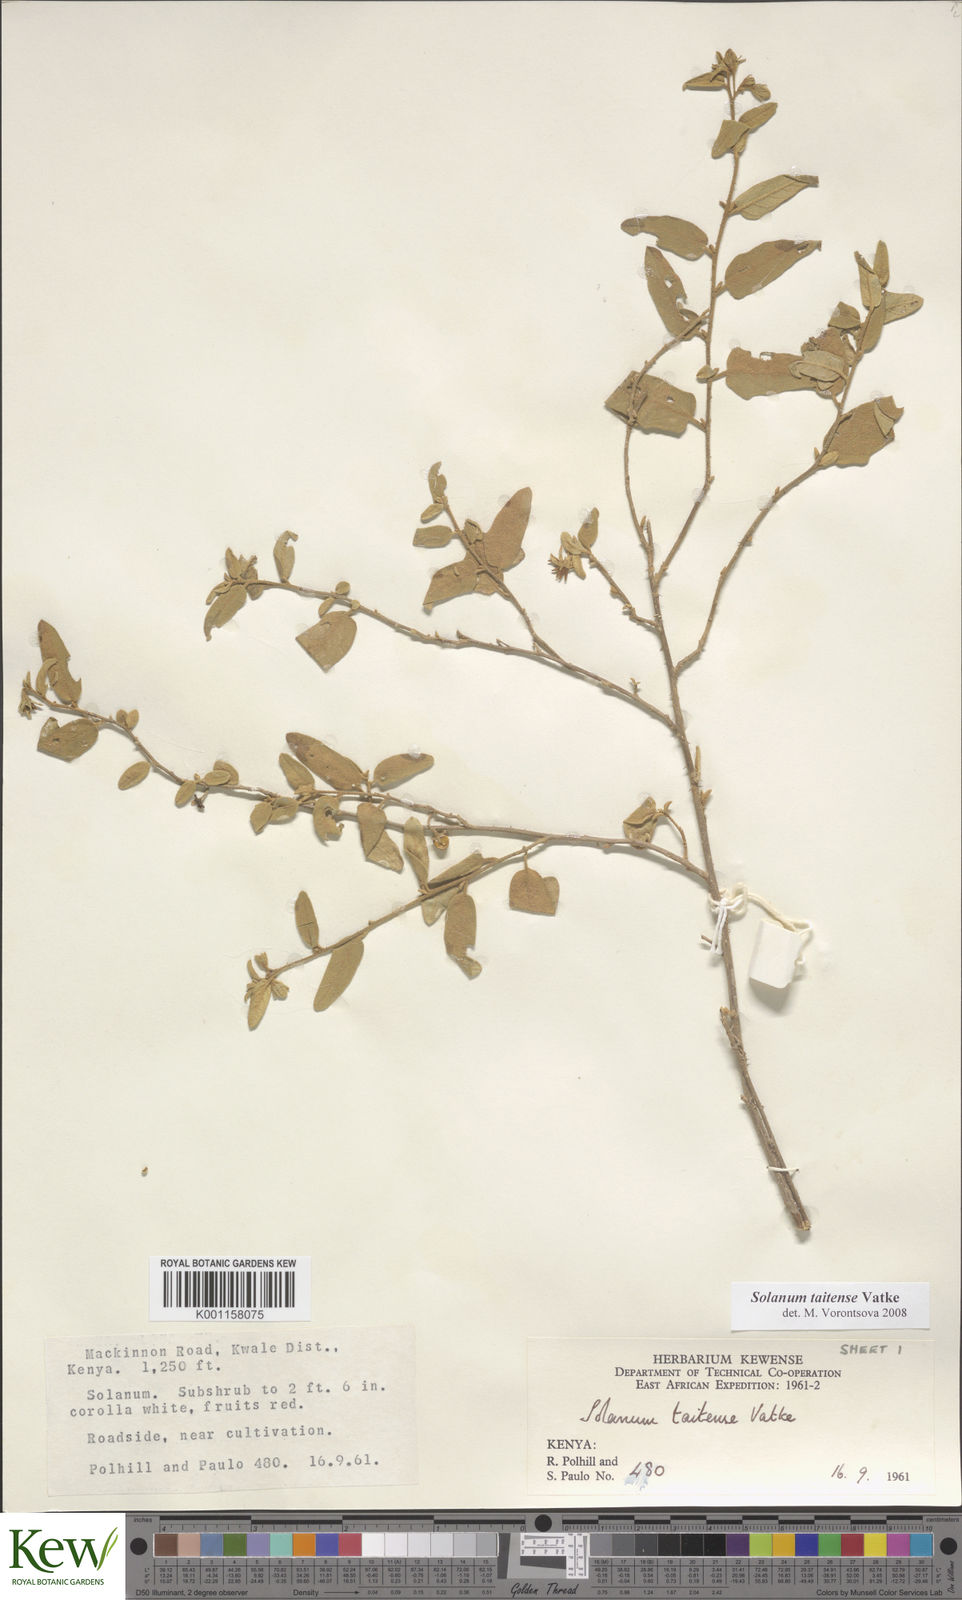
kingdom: Plantae
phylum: Tracheophyta
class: Magnoliopsida
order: Solanales
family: Solanaceae
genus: Solanum
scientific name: Solanum taitense
